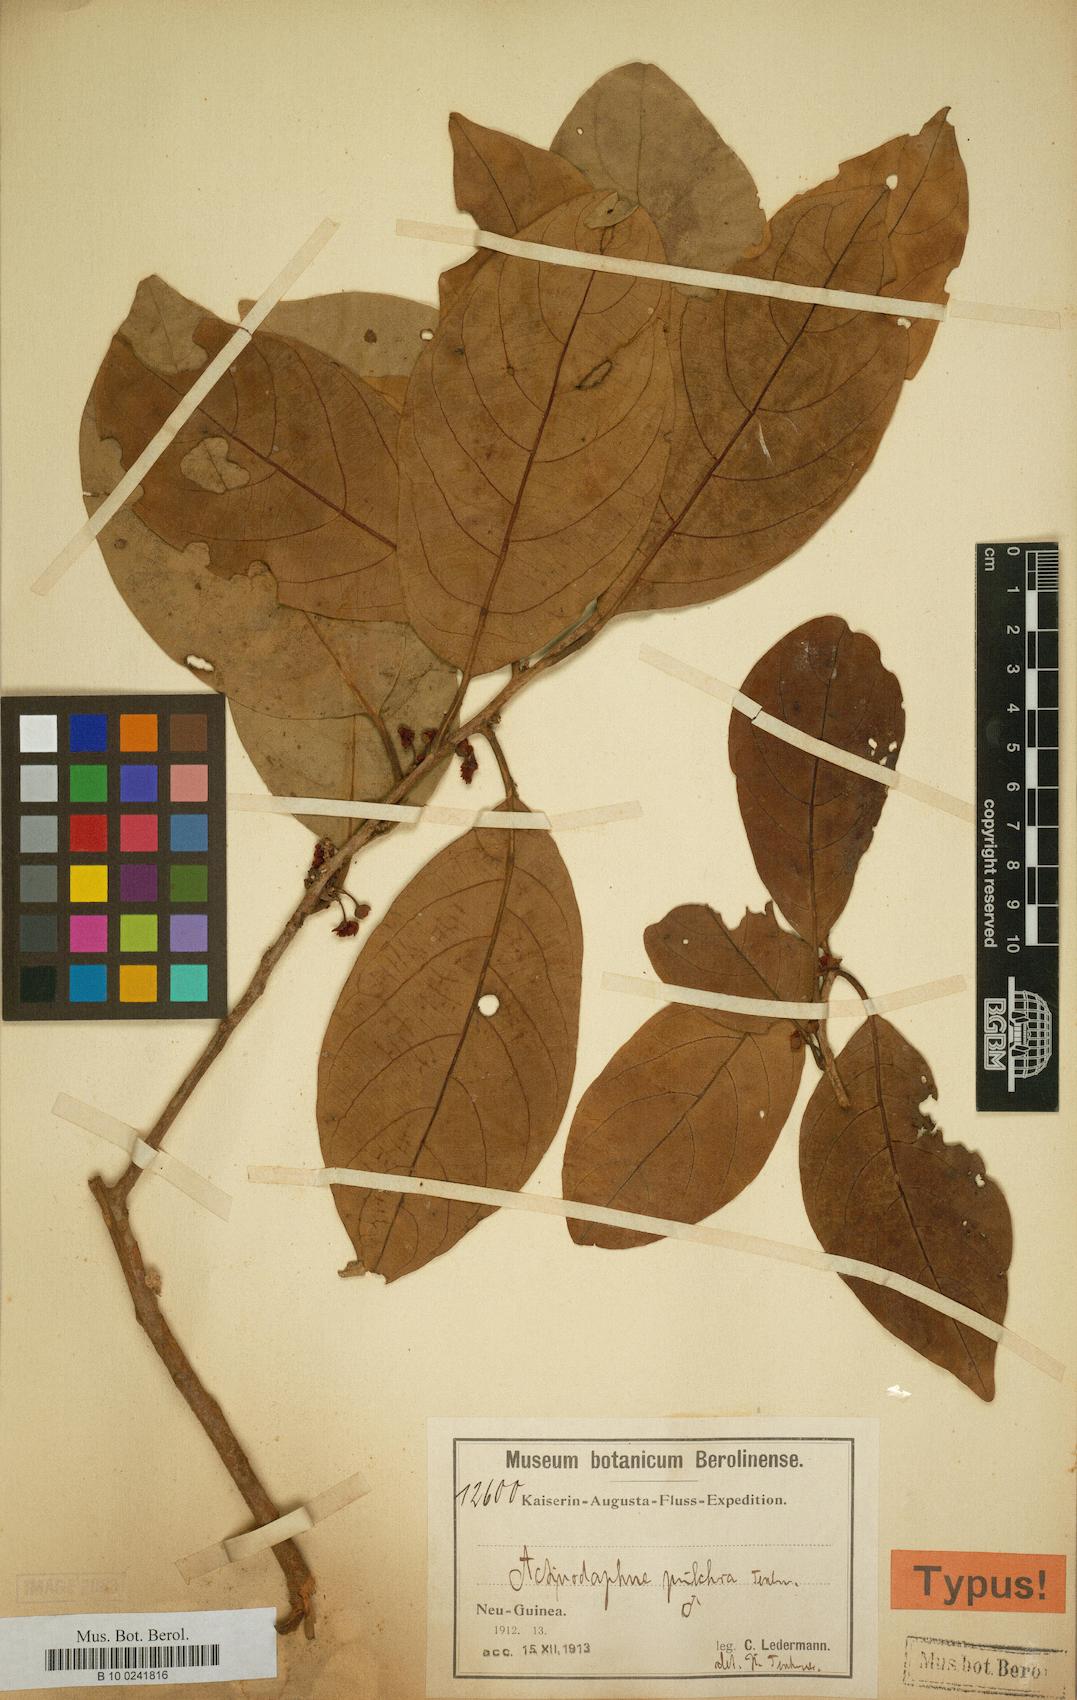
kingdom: Plantae
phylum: Tracheophyta
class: Magnoliopsida
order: Laurales
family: Lauraceae
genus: Litsea
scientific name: Litsea minor
